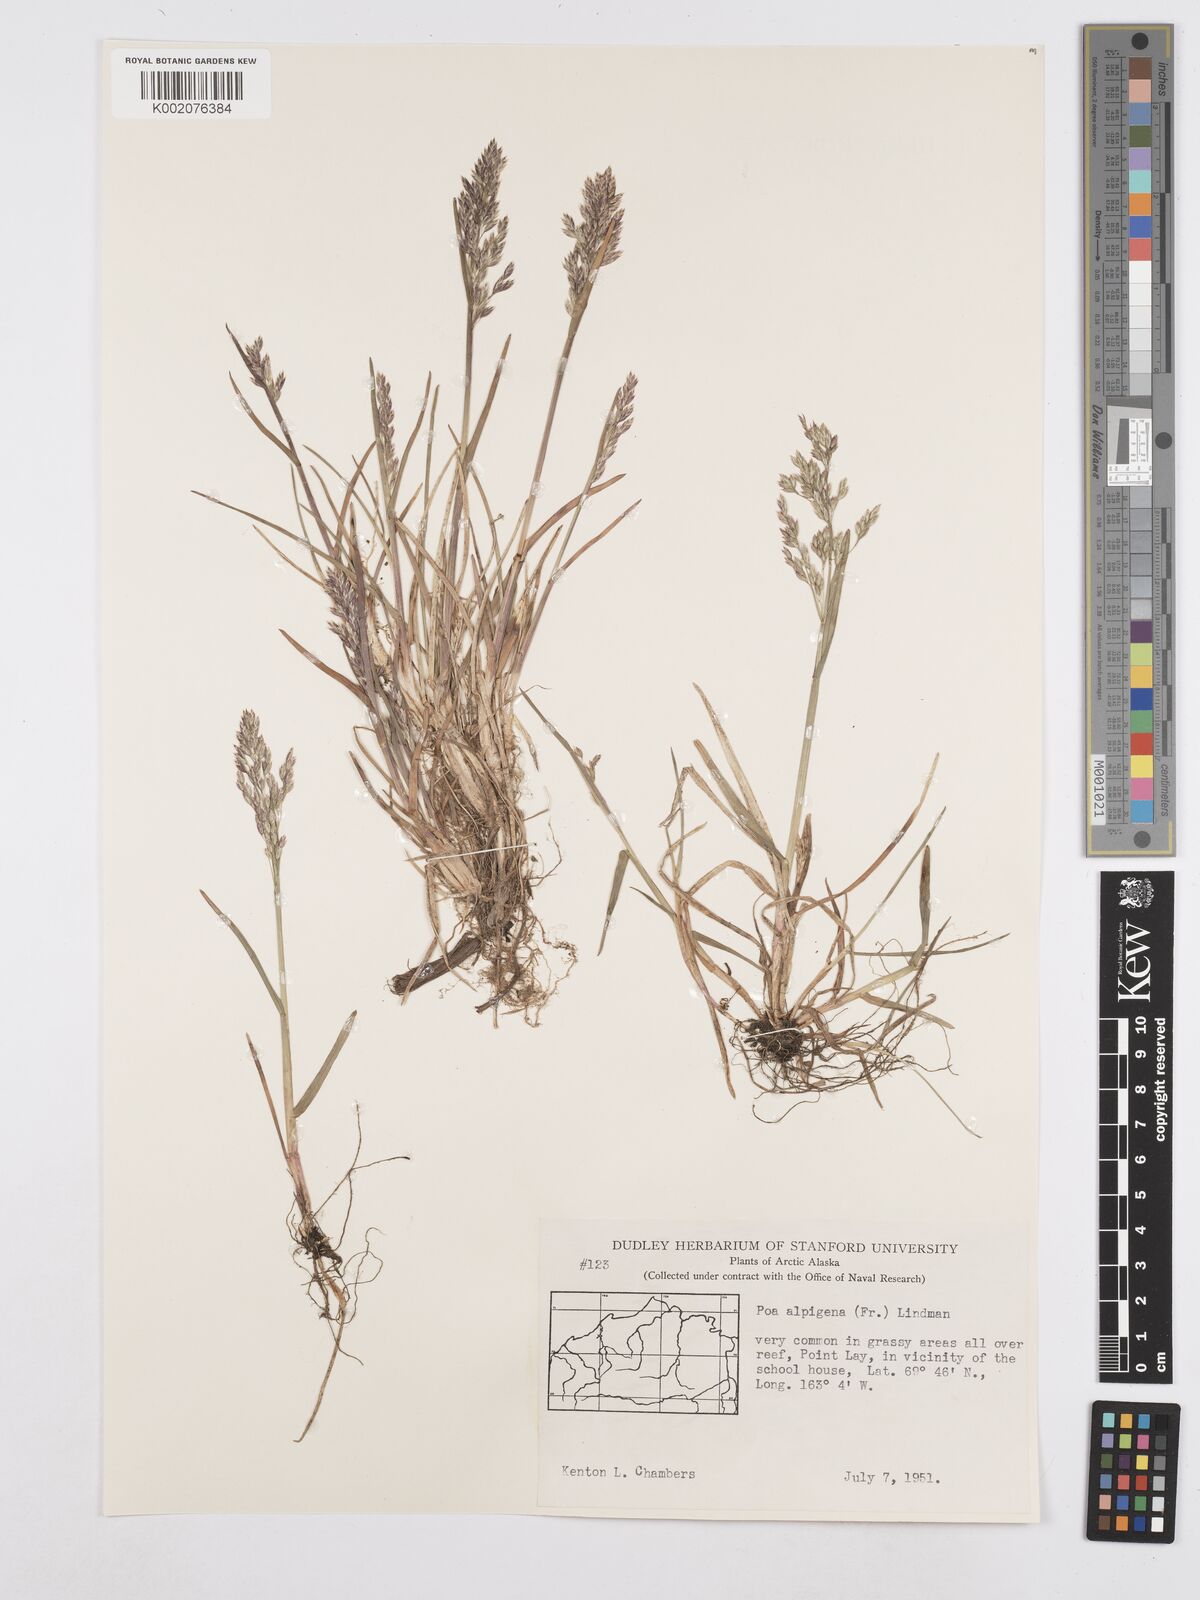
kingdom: Plantae
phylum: Tracheophyta
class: Liliopsida
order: Poales
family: Poaceae
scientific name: Poaceae
